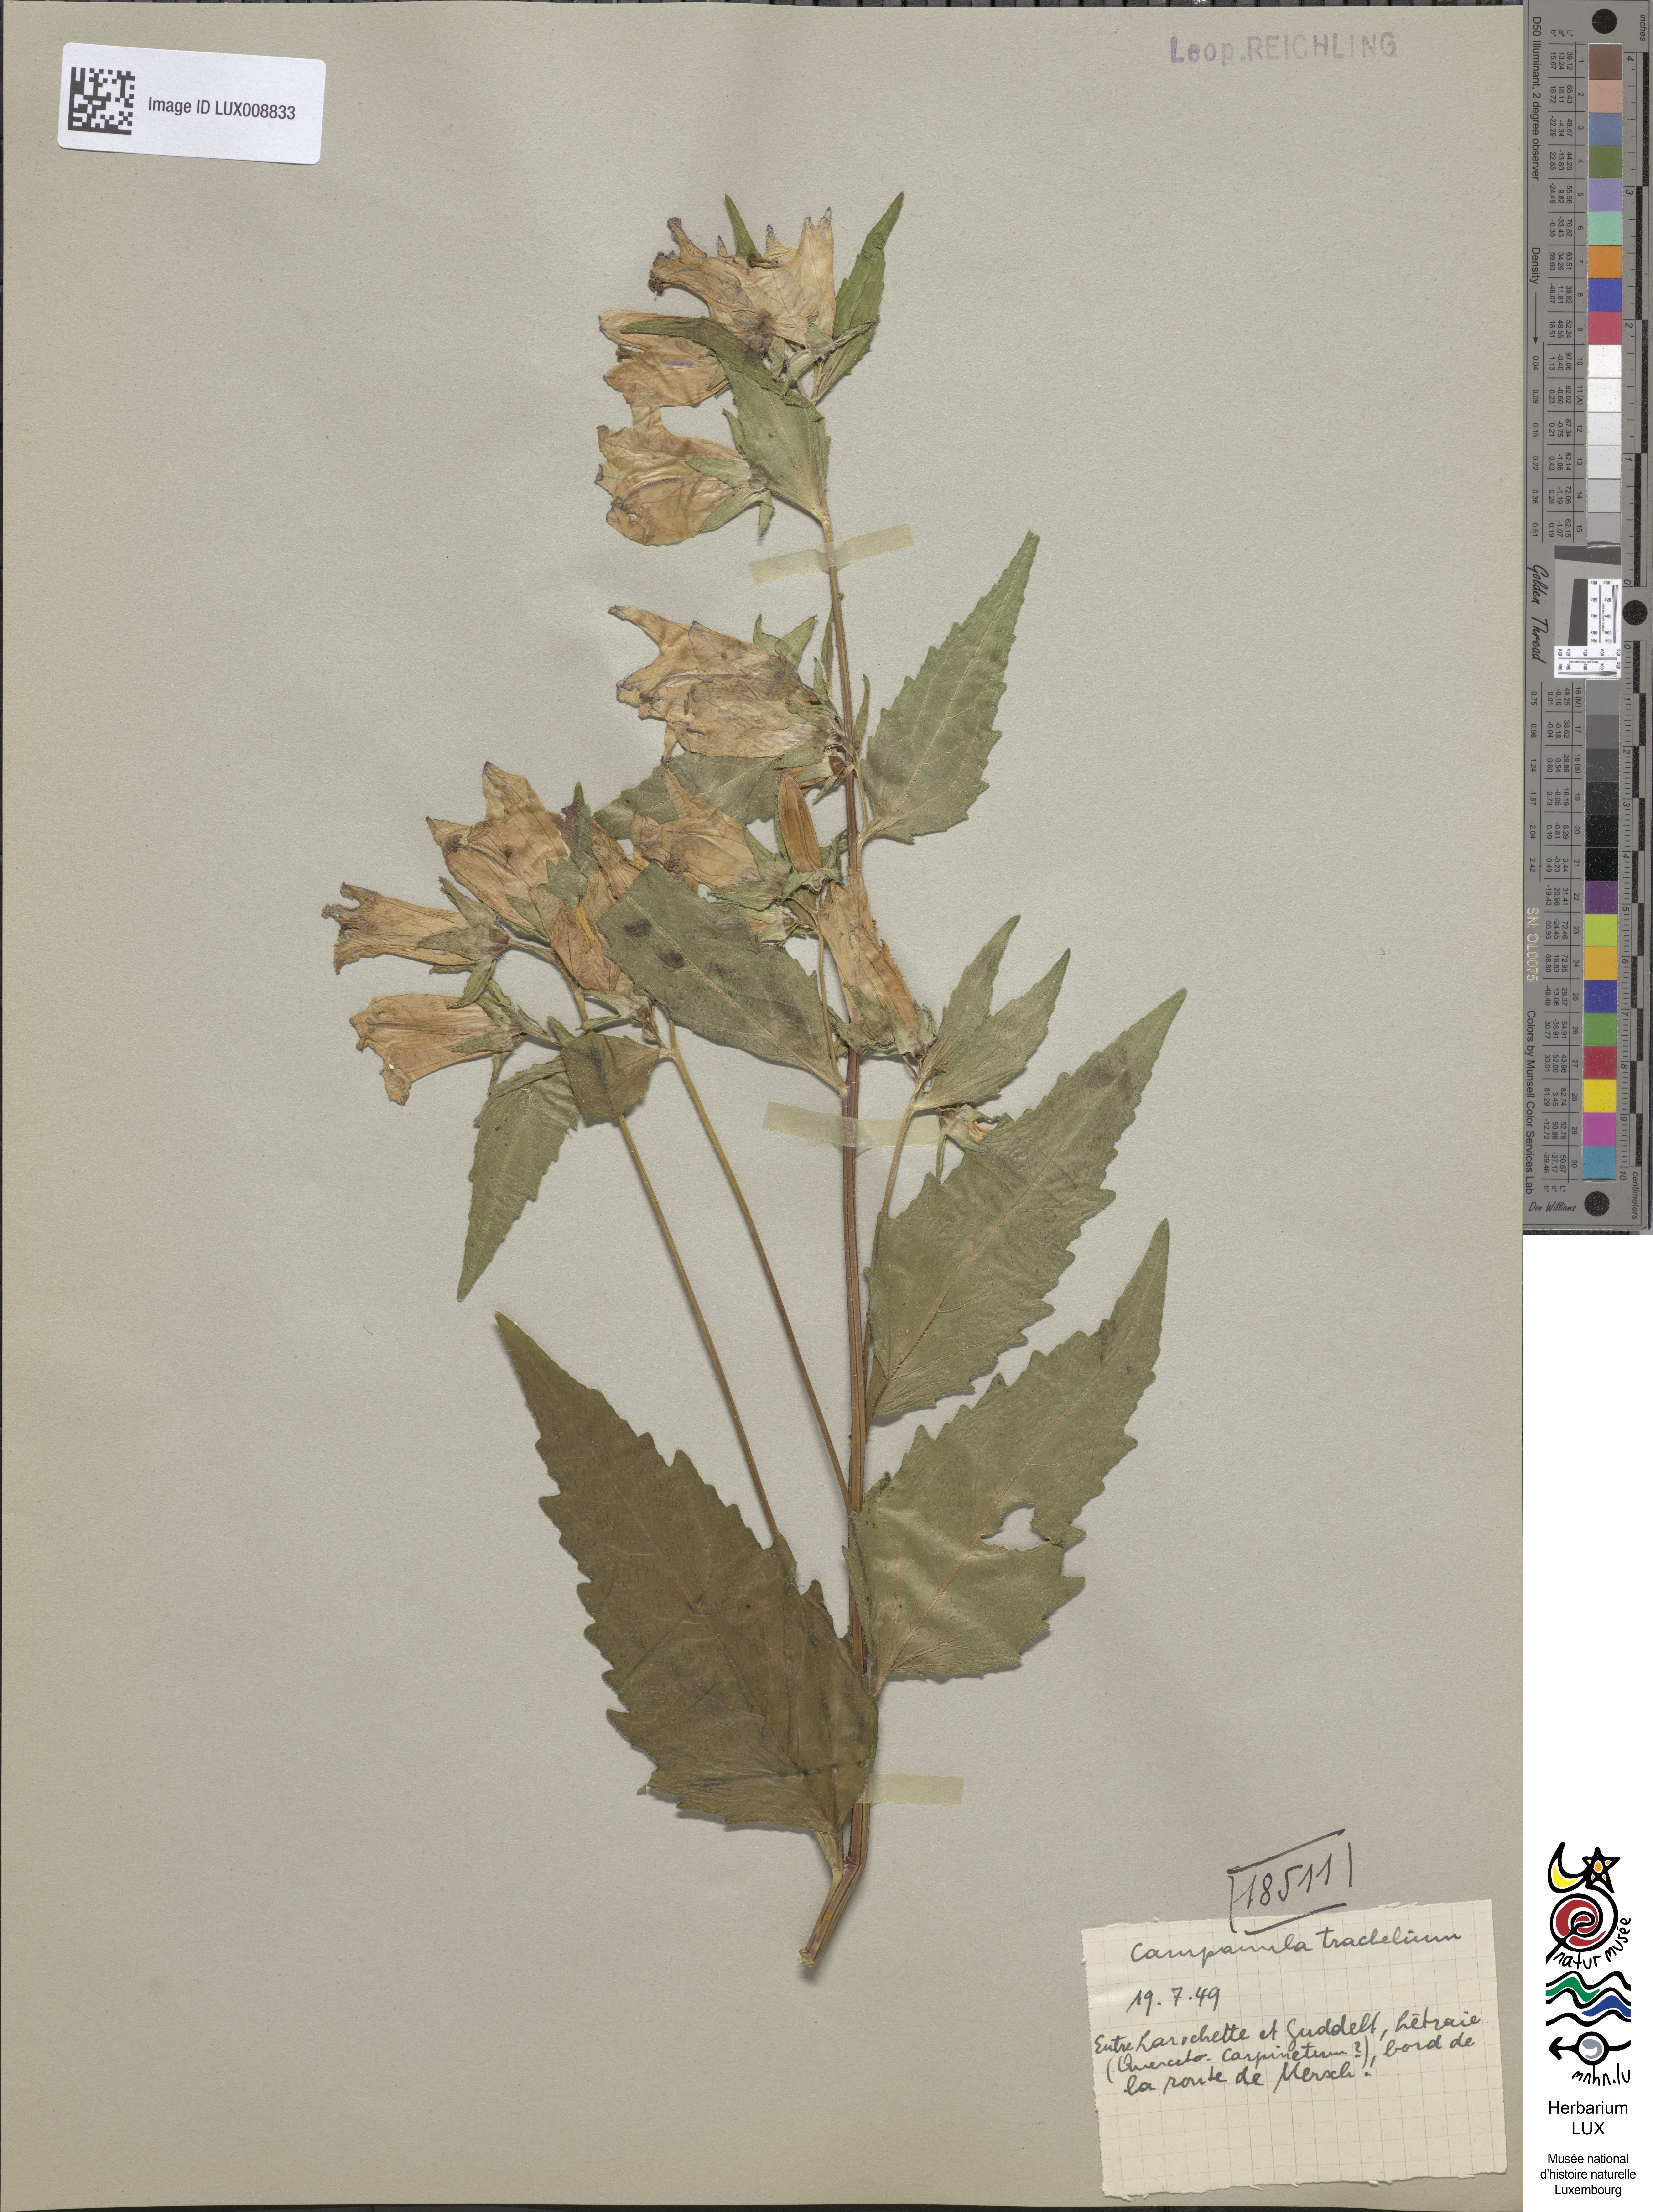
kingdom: Plantae
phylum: Tracheophyta
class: Magnoliopsida
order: Asterales
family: Campanulaceae
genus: Campanula
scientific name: Campanula trachelium
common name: Nettle-leaved bellflower
